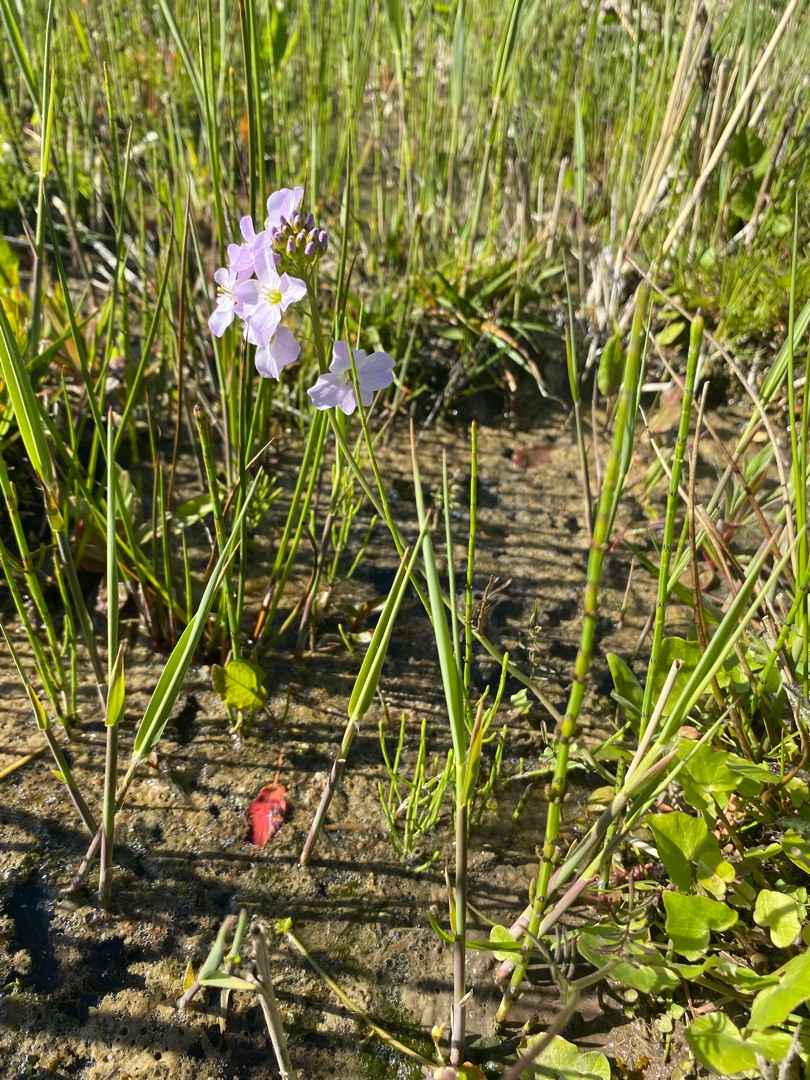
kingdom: Plantae
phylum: Tracheophyta
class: Magnoliopsida
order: Brassicales
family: Brassicaceae
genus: Cardamine
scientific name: Cardamine pratensis
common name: Engkarse
